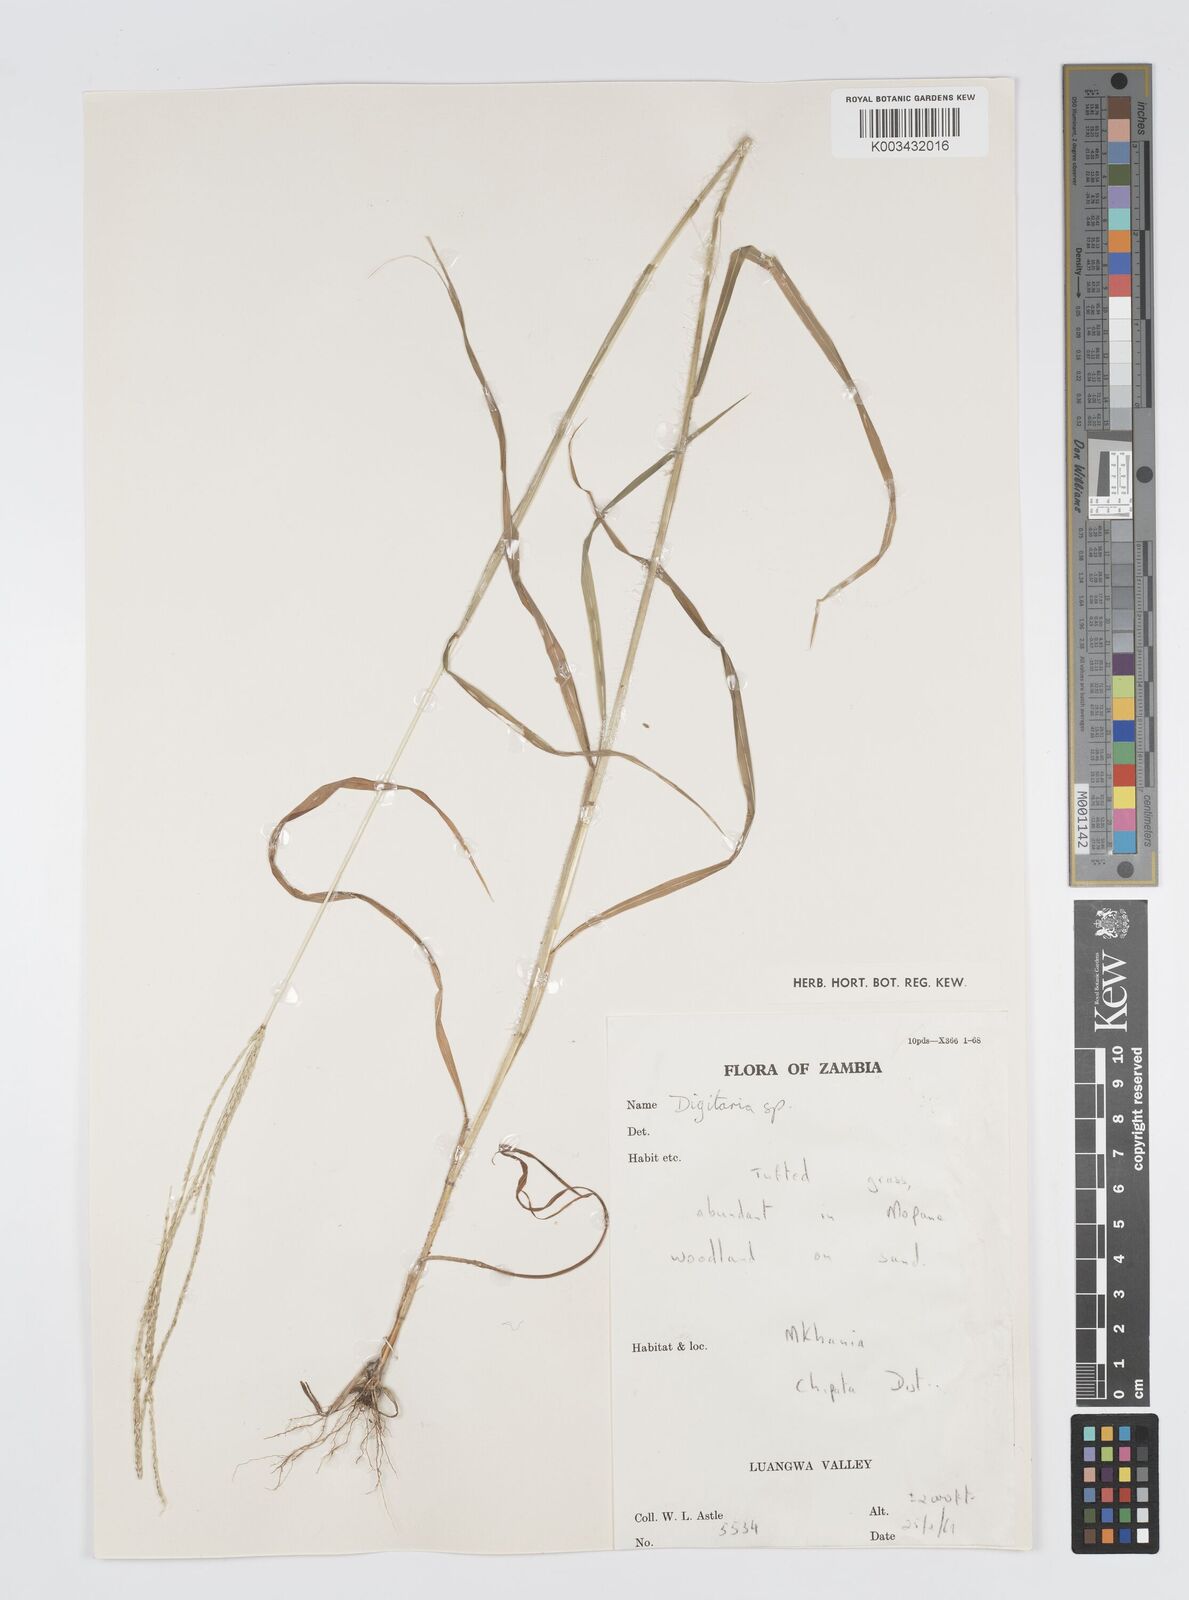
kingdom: Plantae
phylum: Tracheophyta
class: Liliopsida
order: Poales
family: Poaceae
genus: Digitaria
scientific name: Digitaria milanjiana
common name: Madagascar crabgrass
